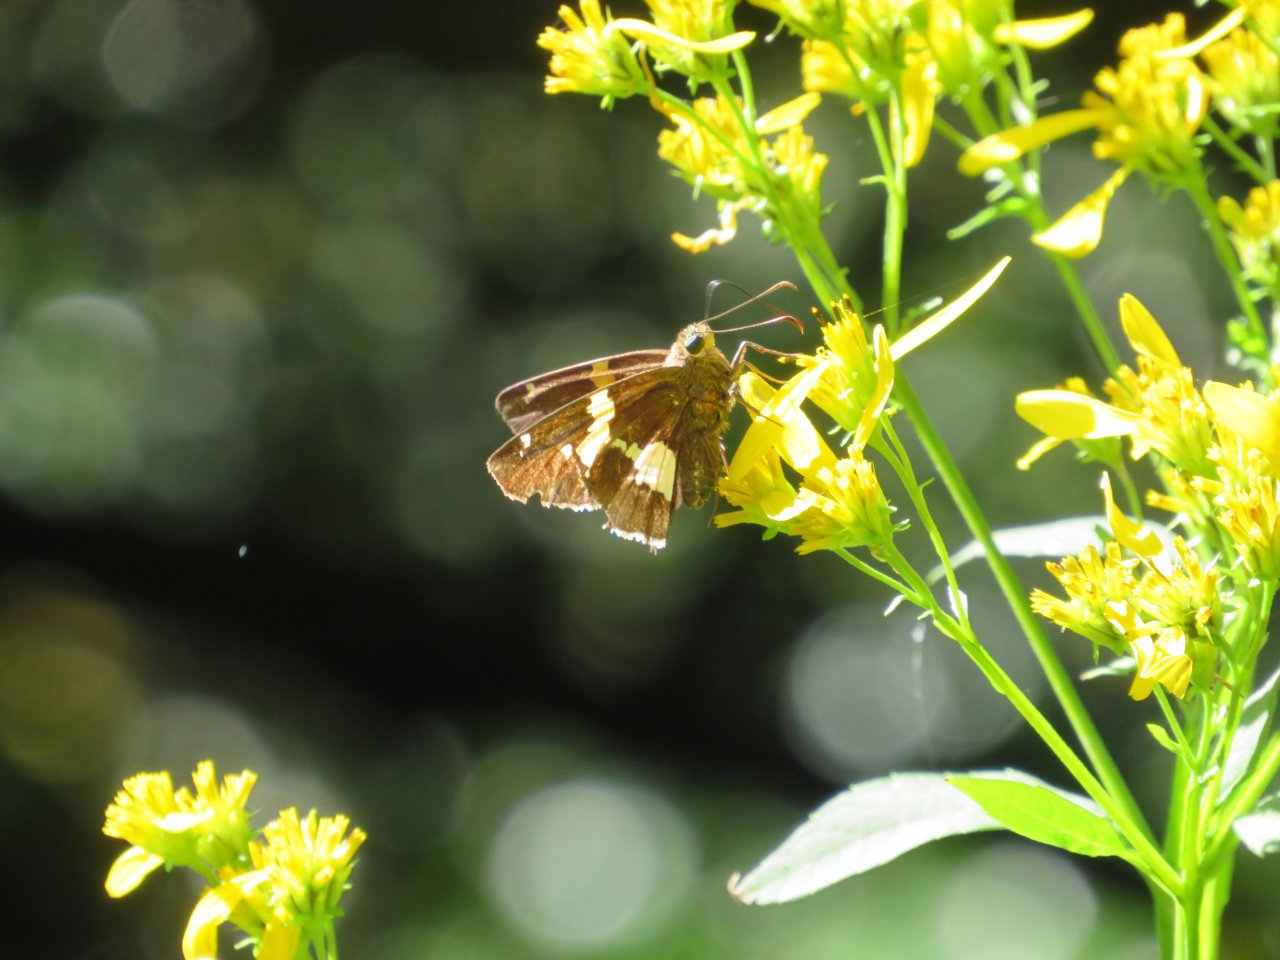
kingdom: Animalia
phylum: Arthropoda
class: Insecta
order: Lepidoptera
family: Hesperiidae
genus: Epargyreus
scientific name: Epargyreus clarus
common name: Silver-spotted Skipper
